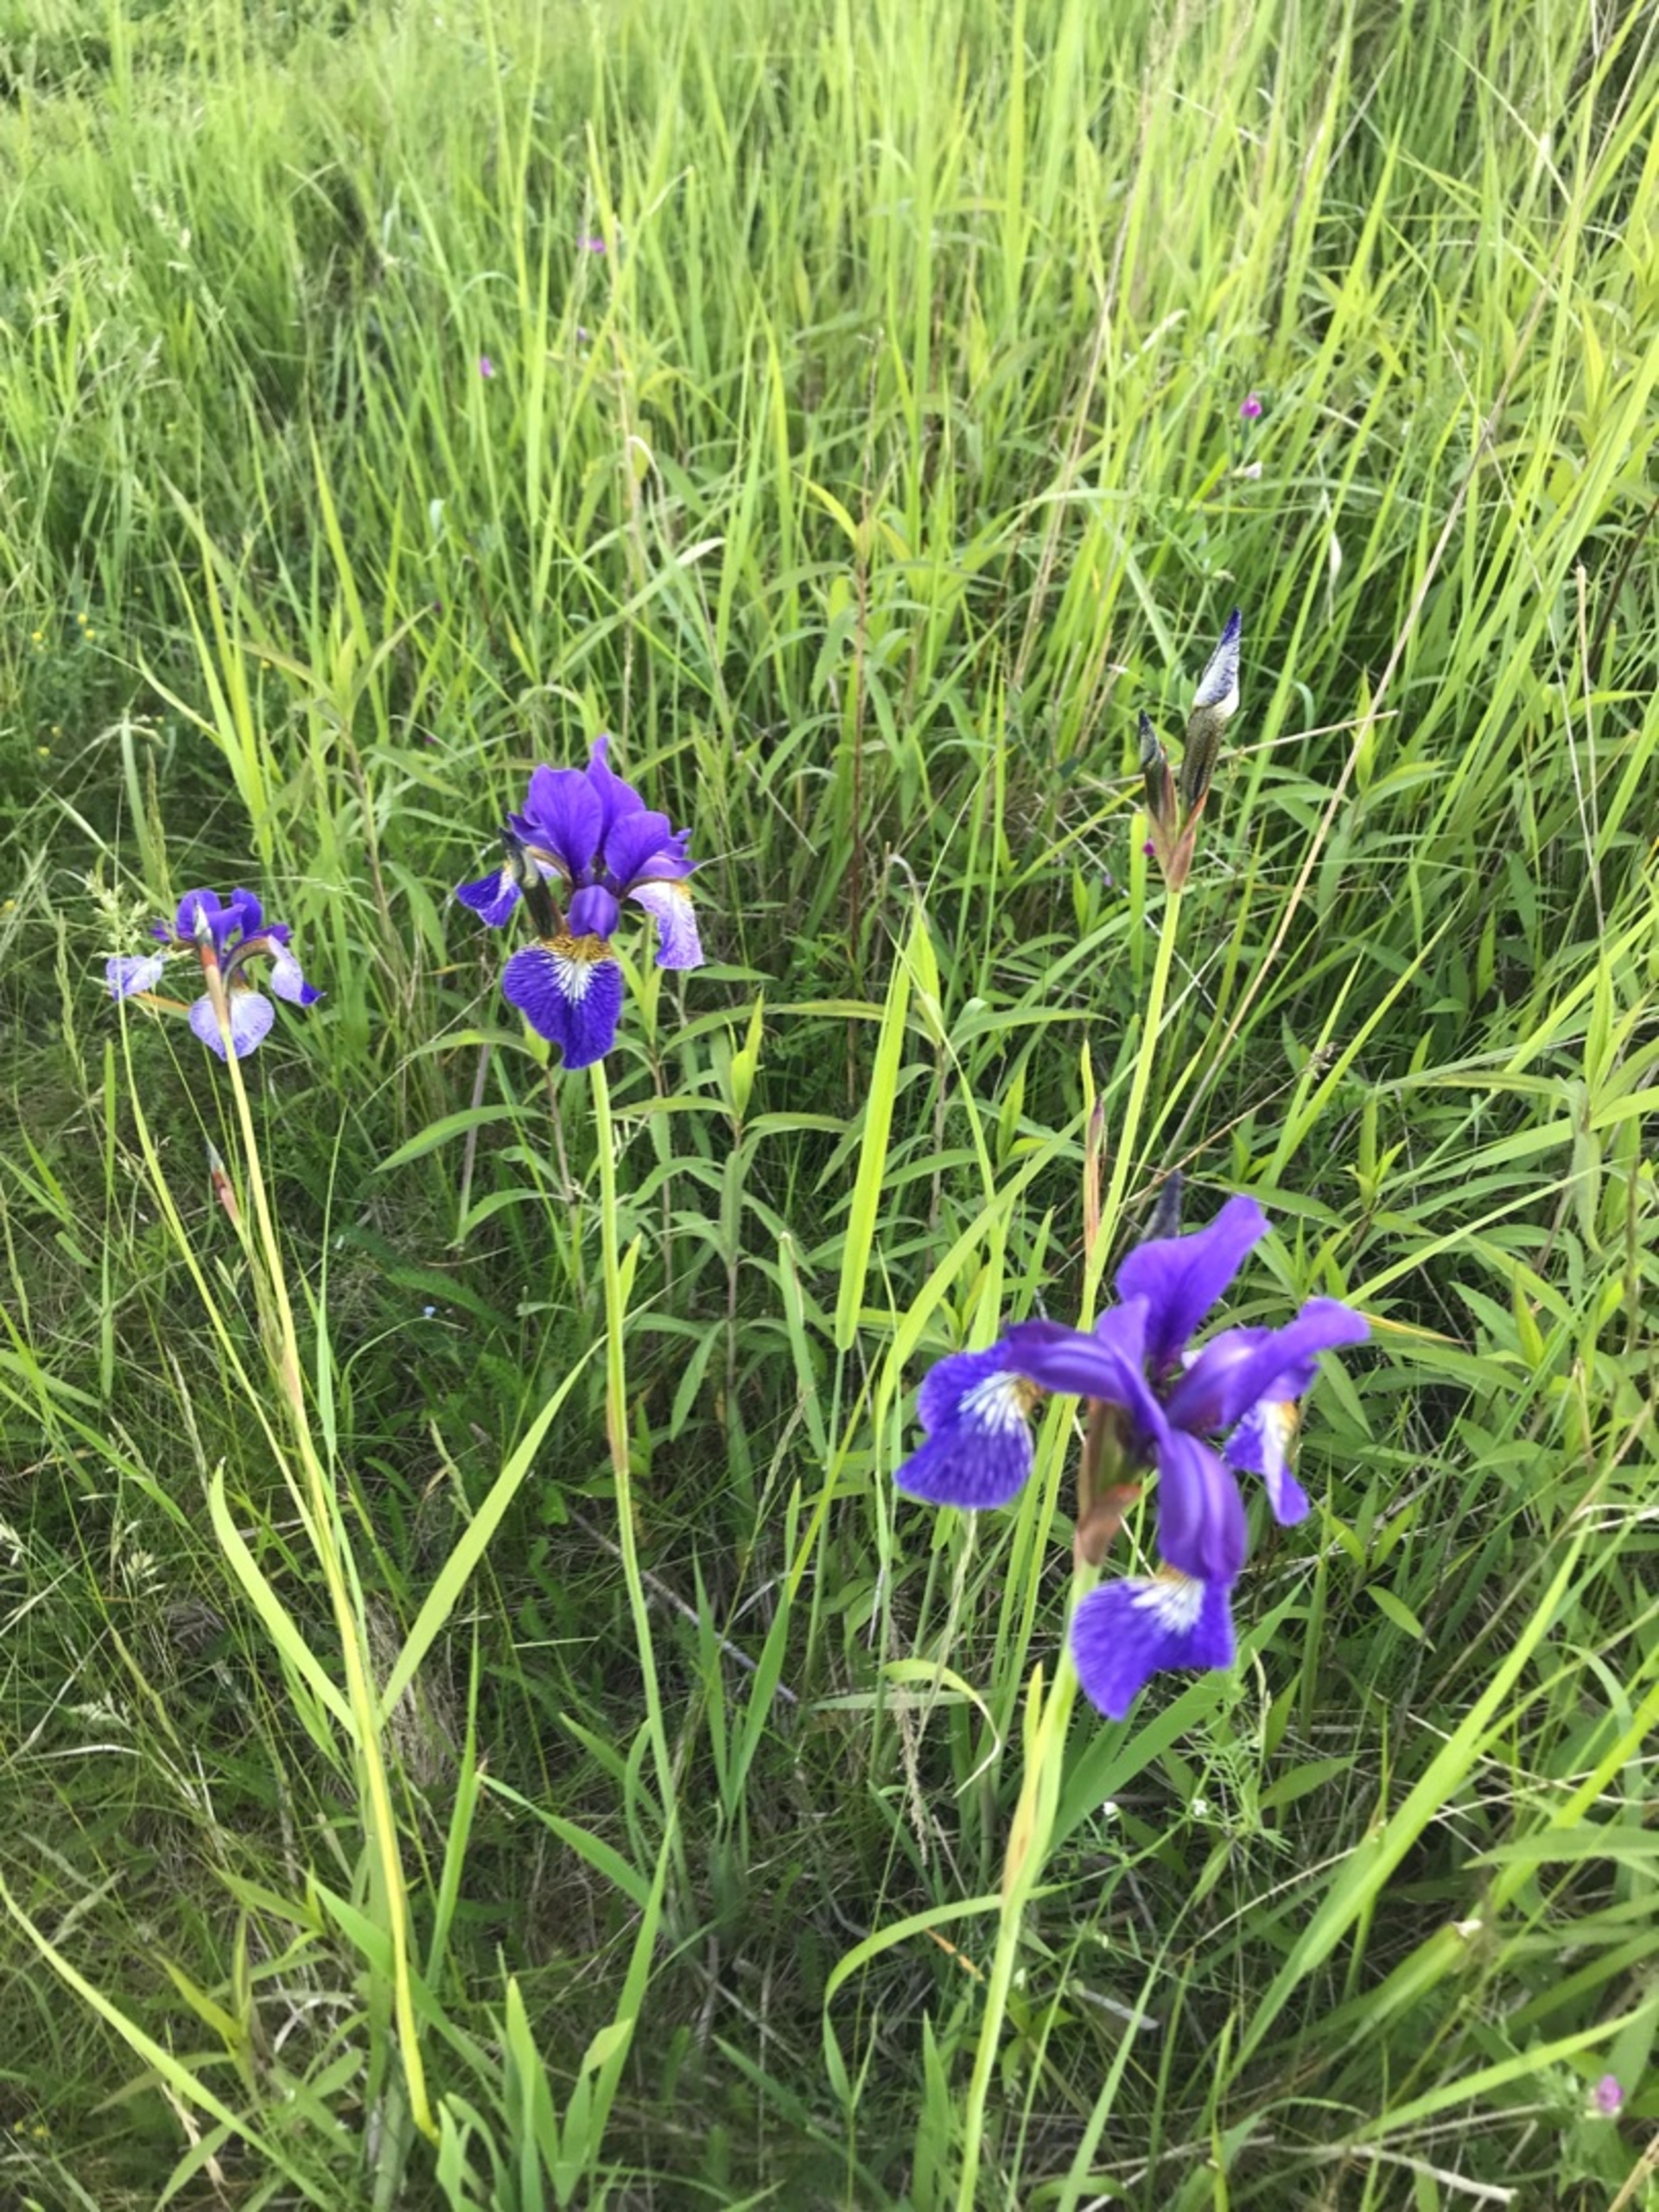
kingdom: Plantae
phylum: Tracheophyta
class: Liliopsida
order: Asparagales
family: Iridaceae
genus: Iris
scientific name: Iris sibirica
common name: Sibirisk iris
